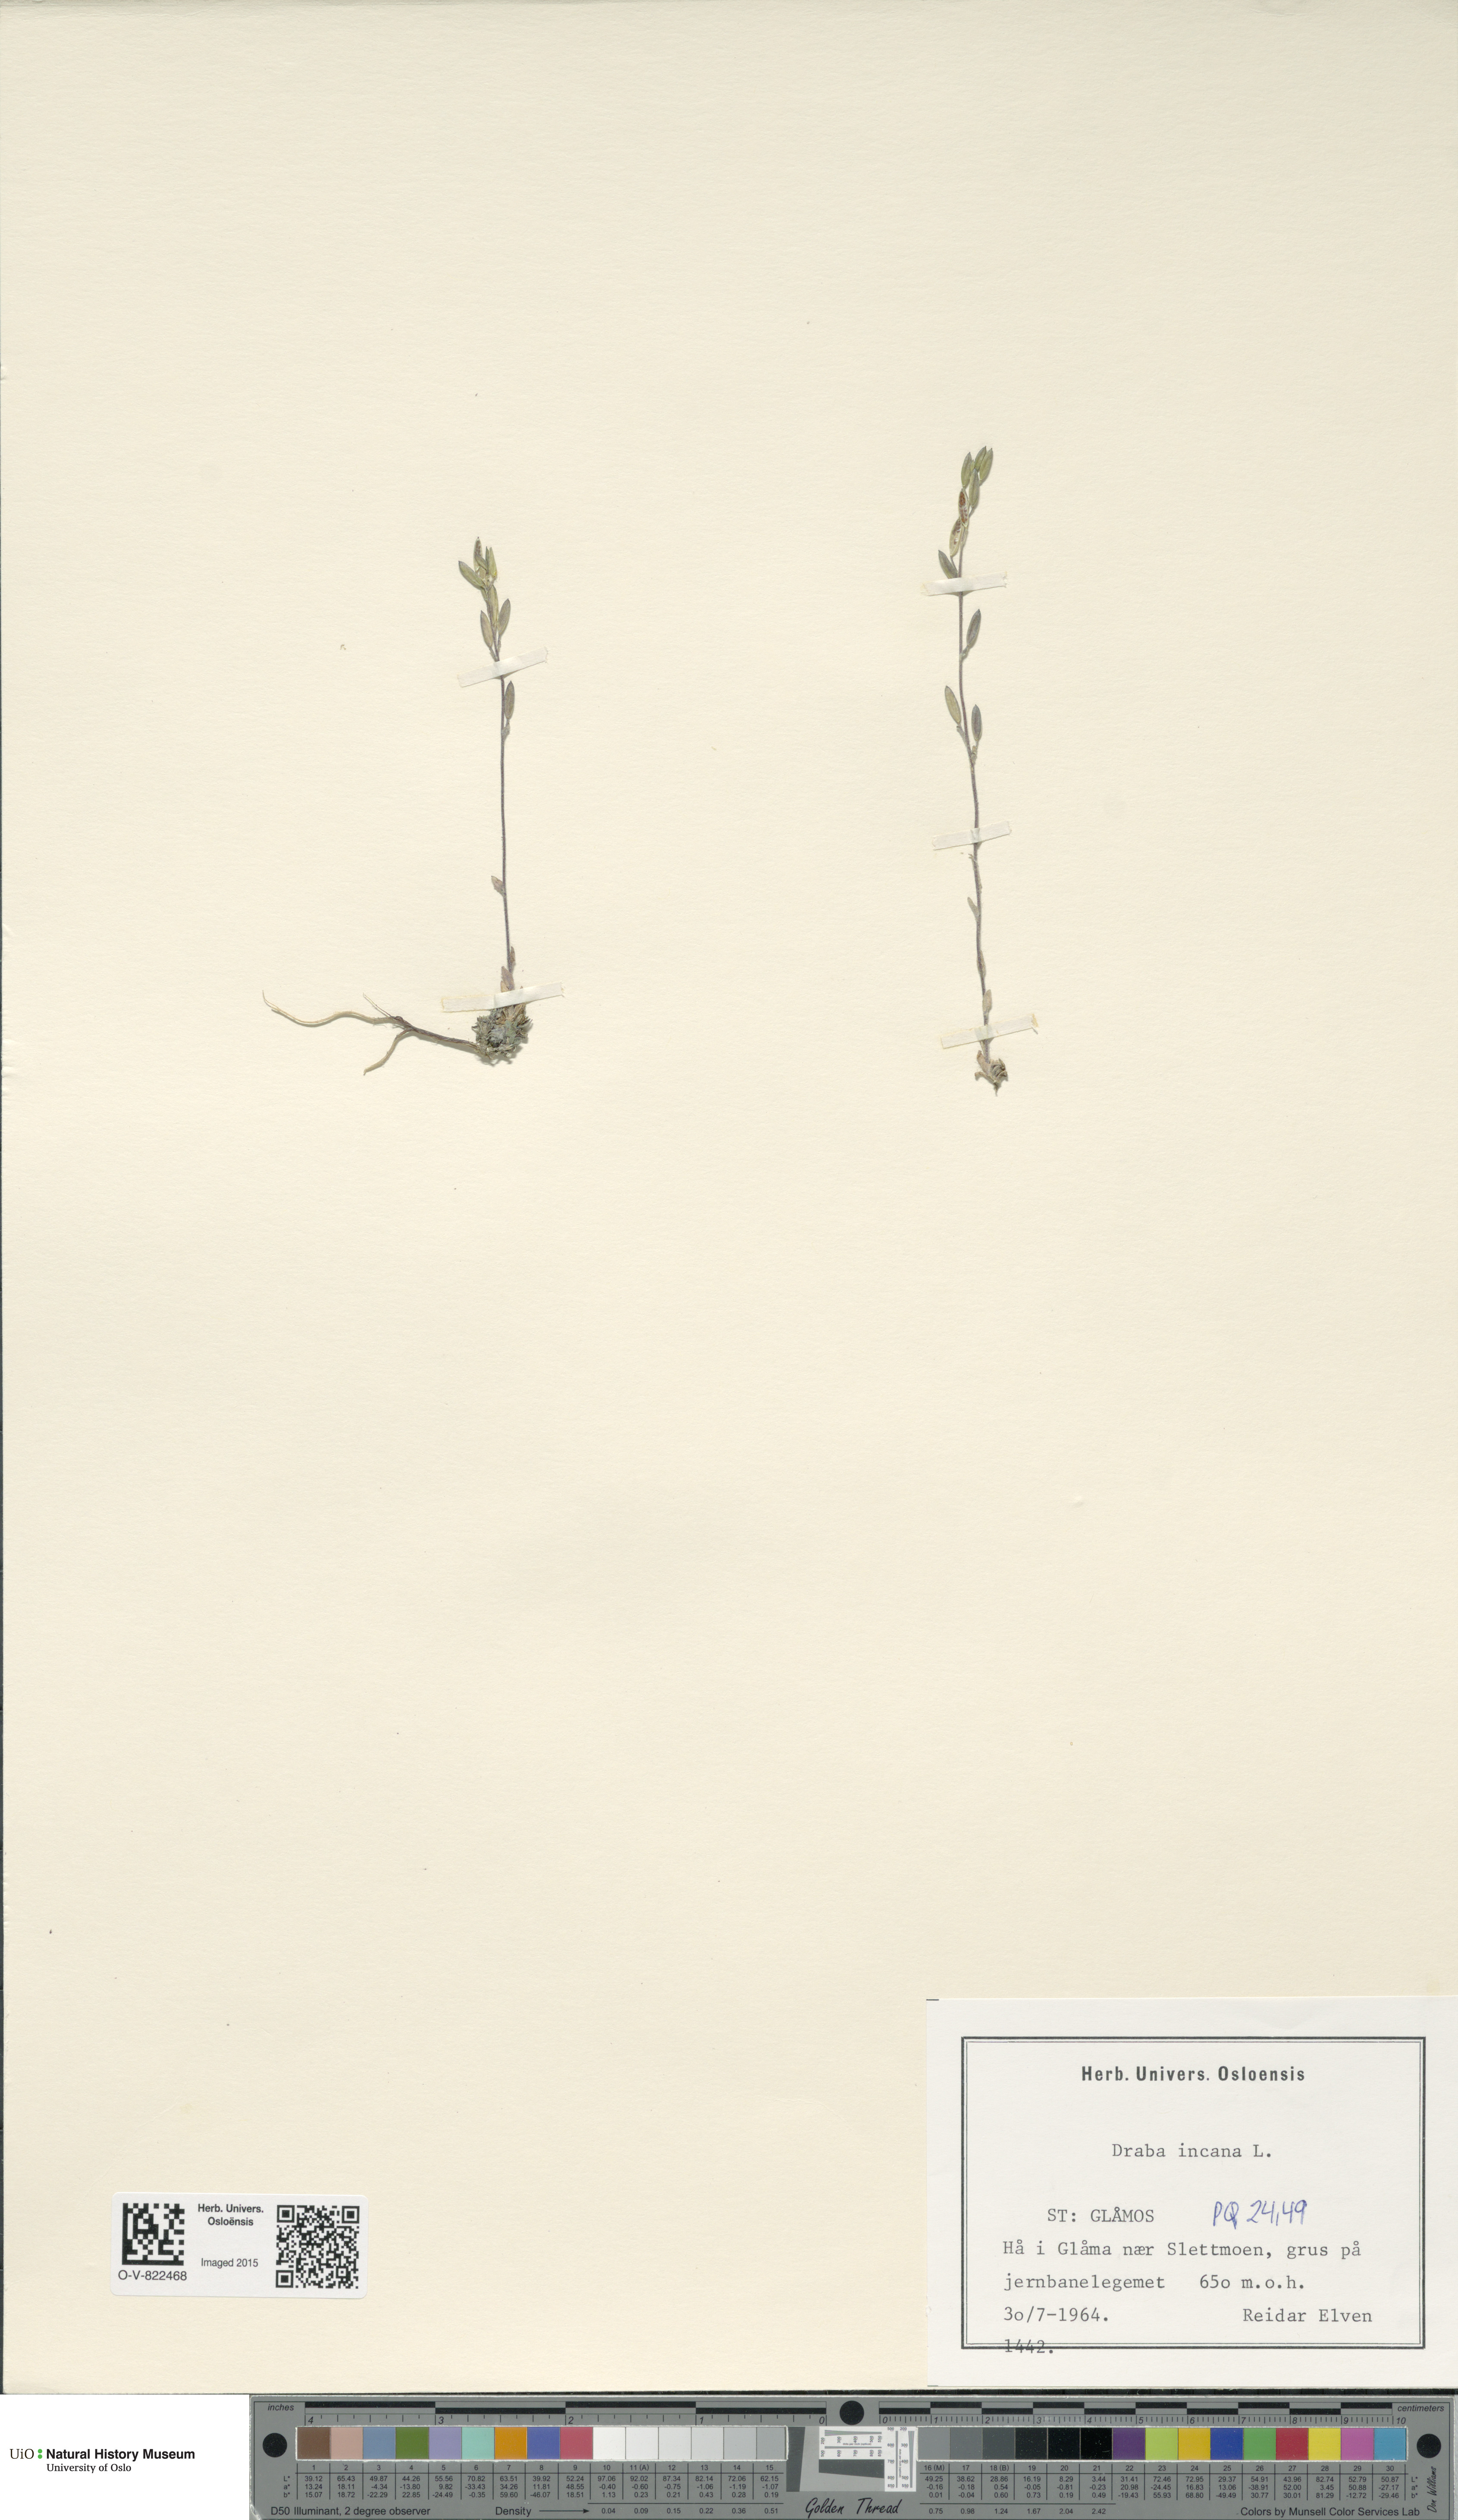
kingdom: Plantae
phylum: Tracheophyta
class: Magnoliopsida
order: Brassicales
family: Brassicaceae
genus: Draba
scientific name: Draba incana
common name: Hoary whitlow-grass
